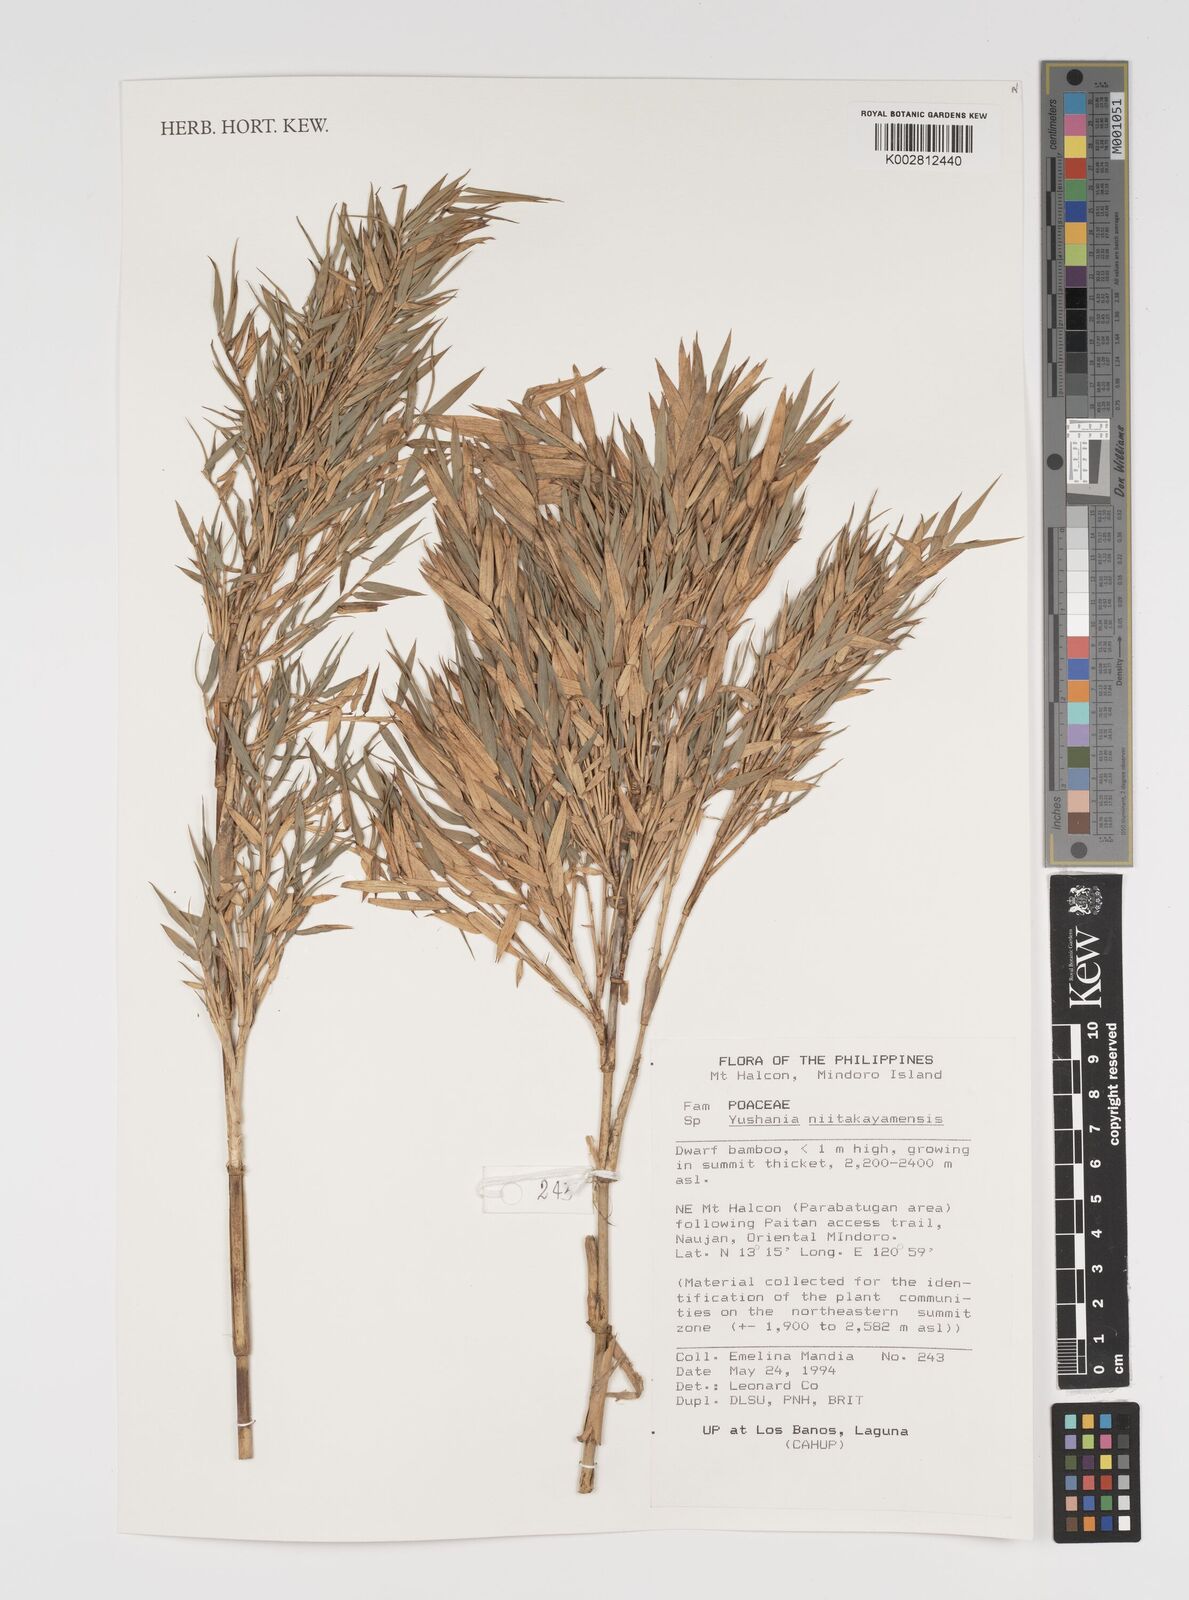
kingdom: Plantae
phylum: Tracheophyta
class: Liliopsida
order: Poales
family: Poaceae
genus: Yushania
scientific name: Yushania niitakayamensis
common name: Yushan cane
